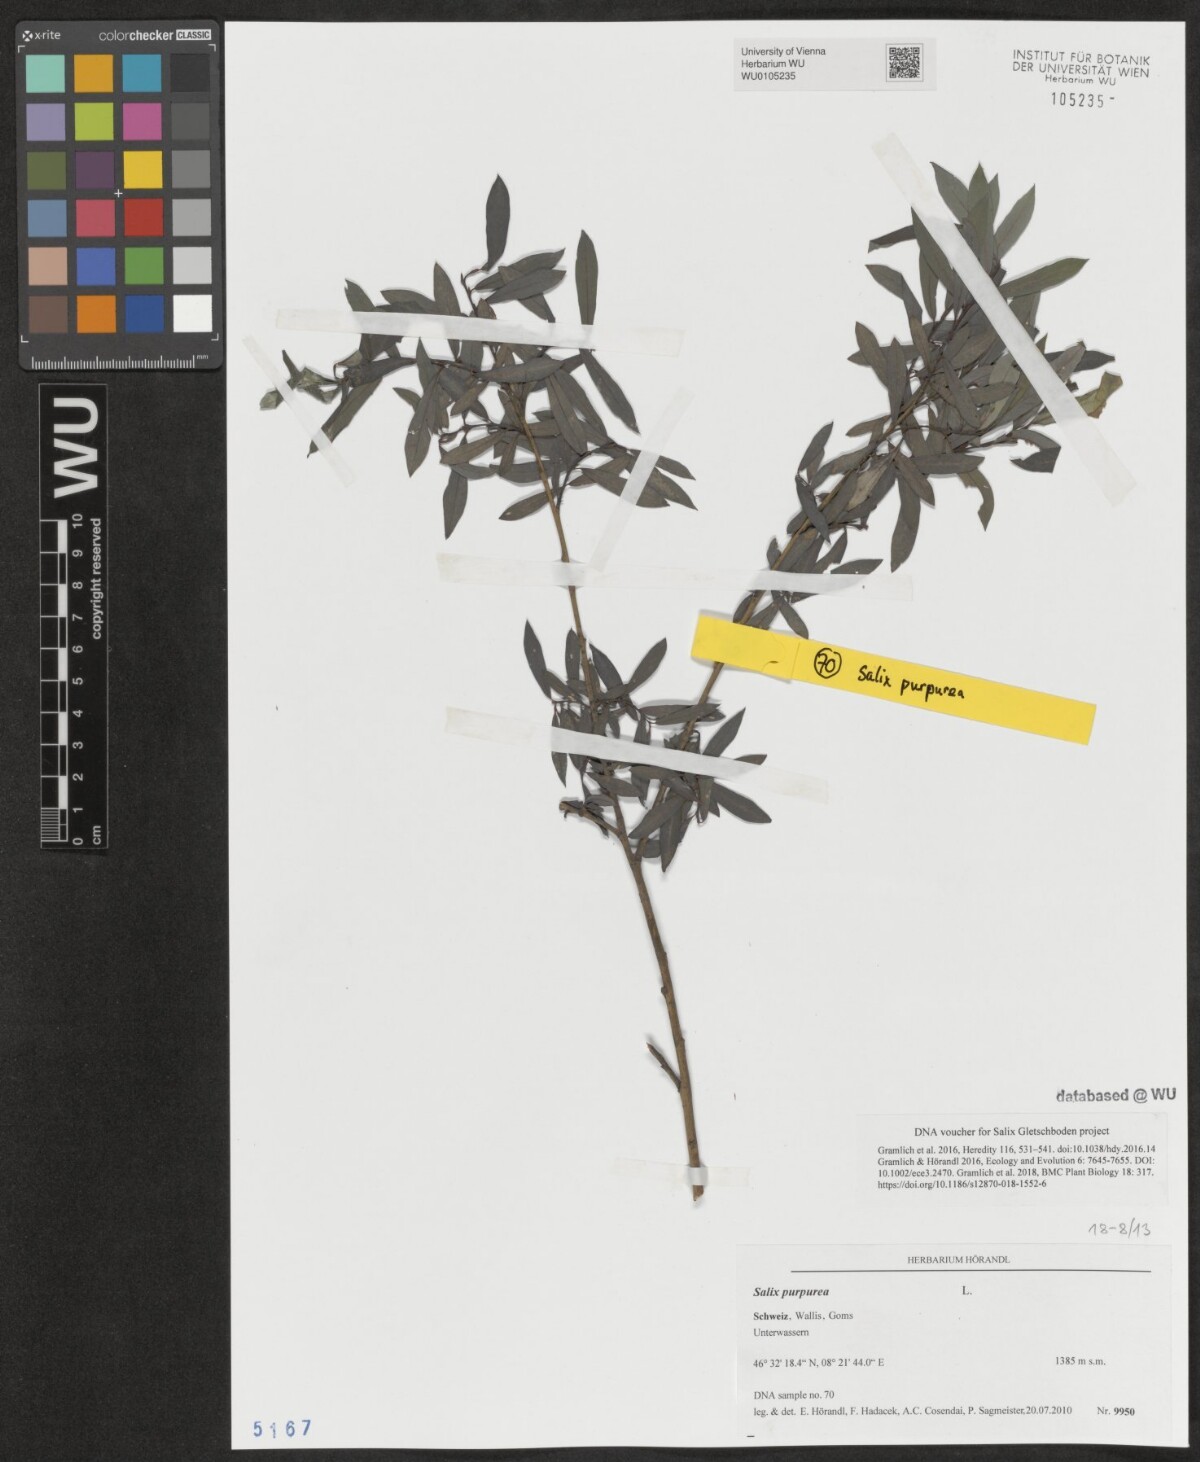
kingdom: Plantae
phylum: Tracheophyta
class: Magnoliopsida
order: Malpighiales
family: Salicaceae
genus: Salix
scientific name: Salix purpurea
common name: Purple willow
